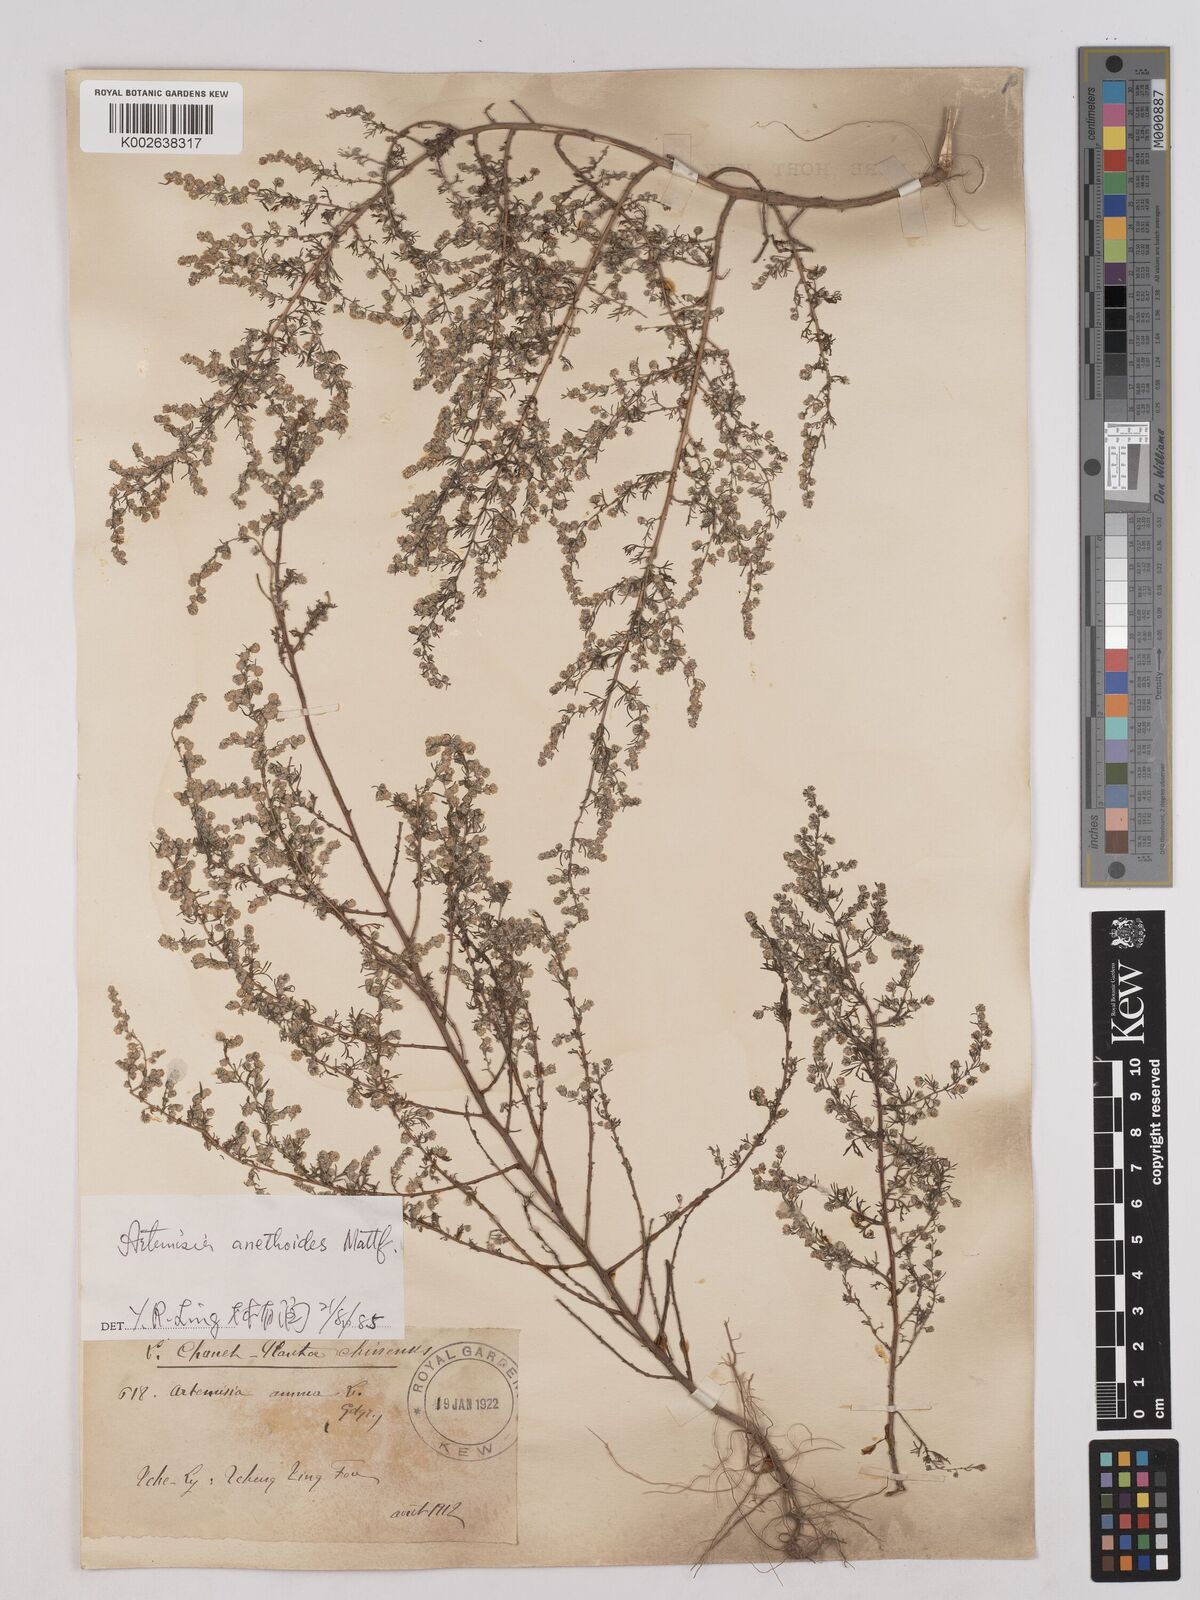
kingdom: Plantae
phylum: Tracheophyta
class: Magnoliopsida
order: Asterales
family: Asteraceae
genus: Artemisia
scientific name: Artemisia anethoides
